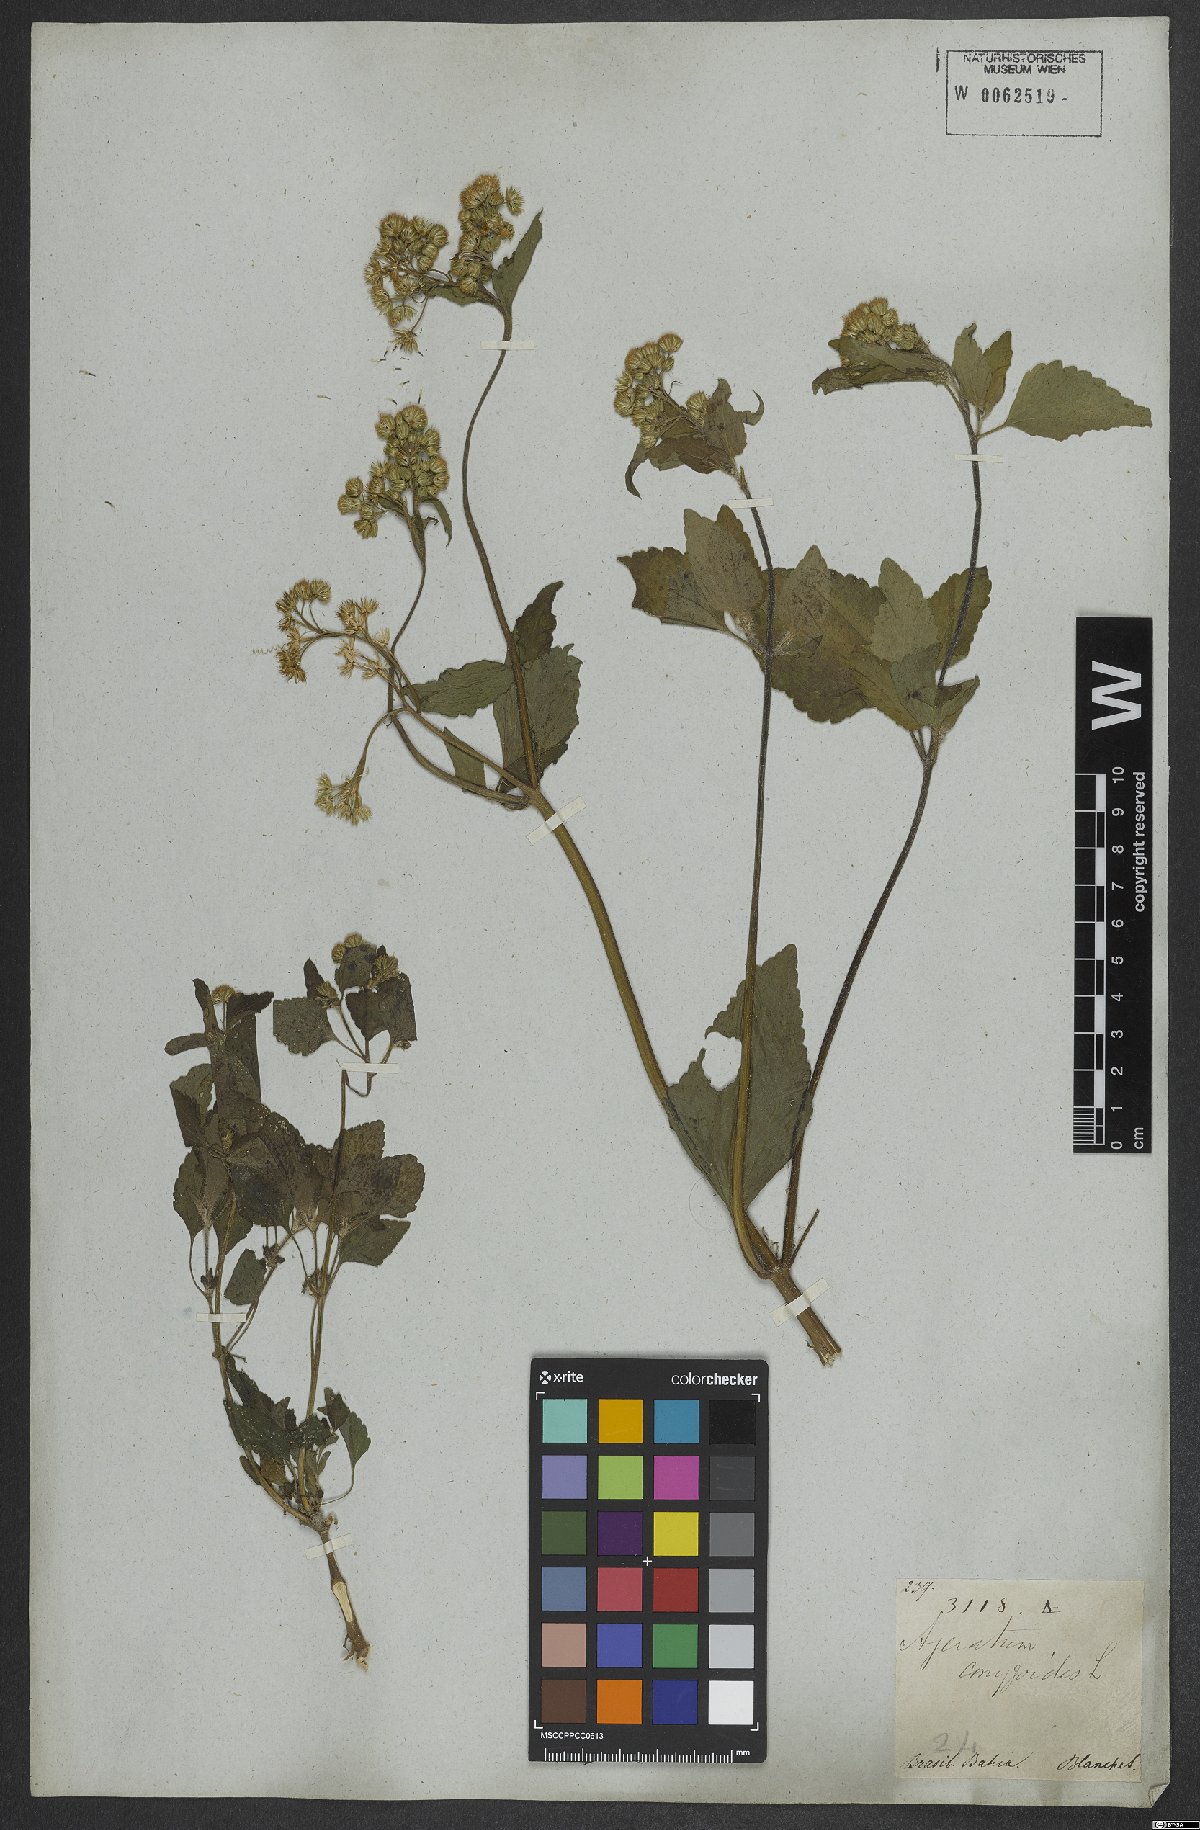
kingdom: Plantae
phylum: Tracheophyta
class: Magnoliopsida
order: Asterales
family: Asteraceae
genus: Ageratum
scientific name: Ageratum conyzoides
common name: Tropical whiteweed
